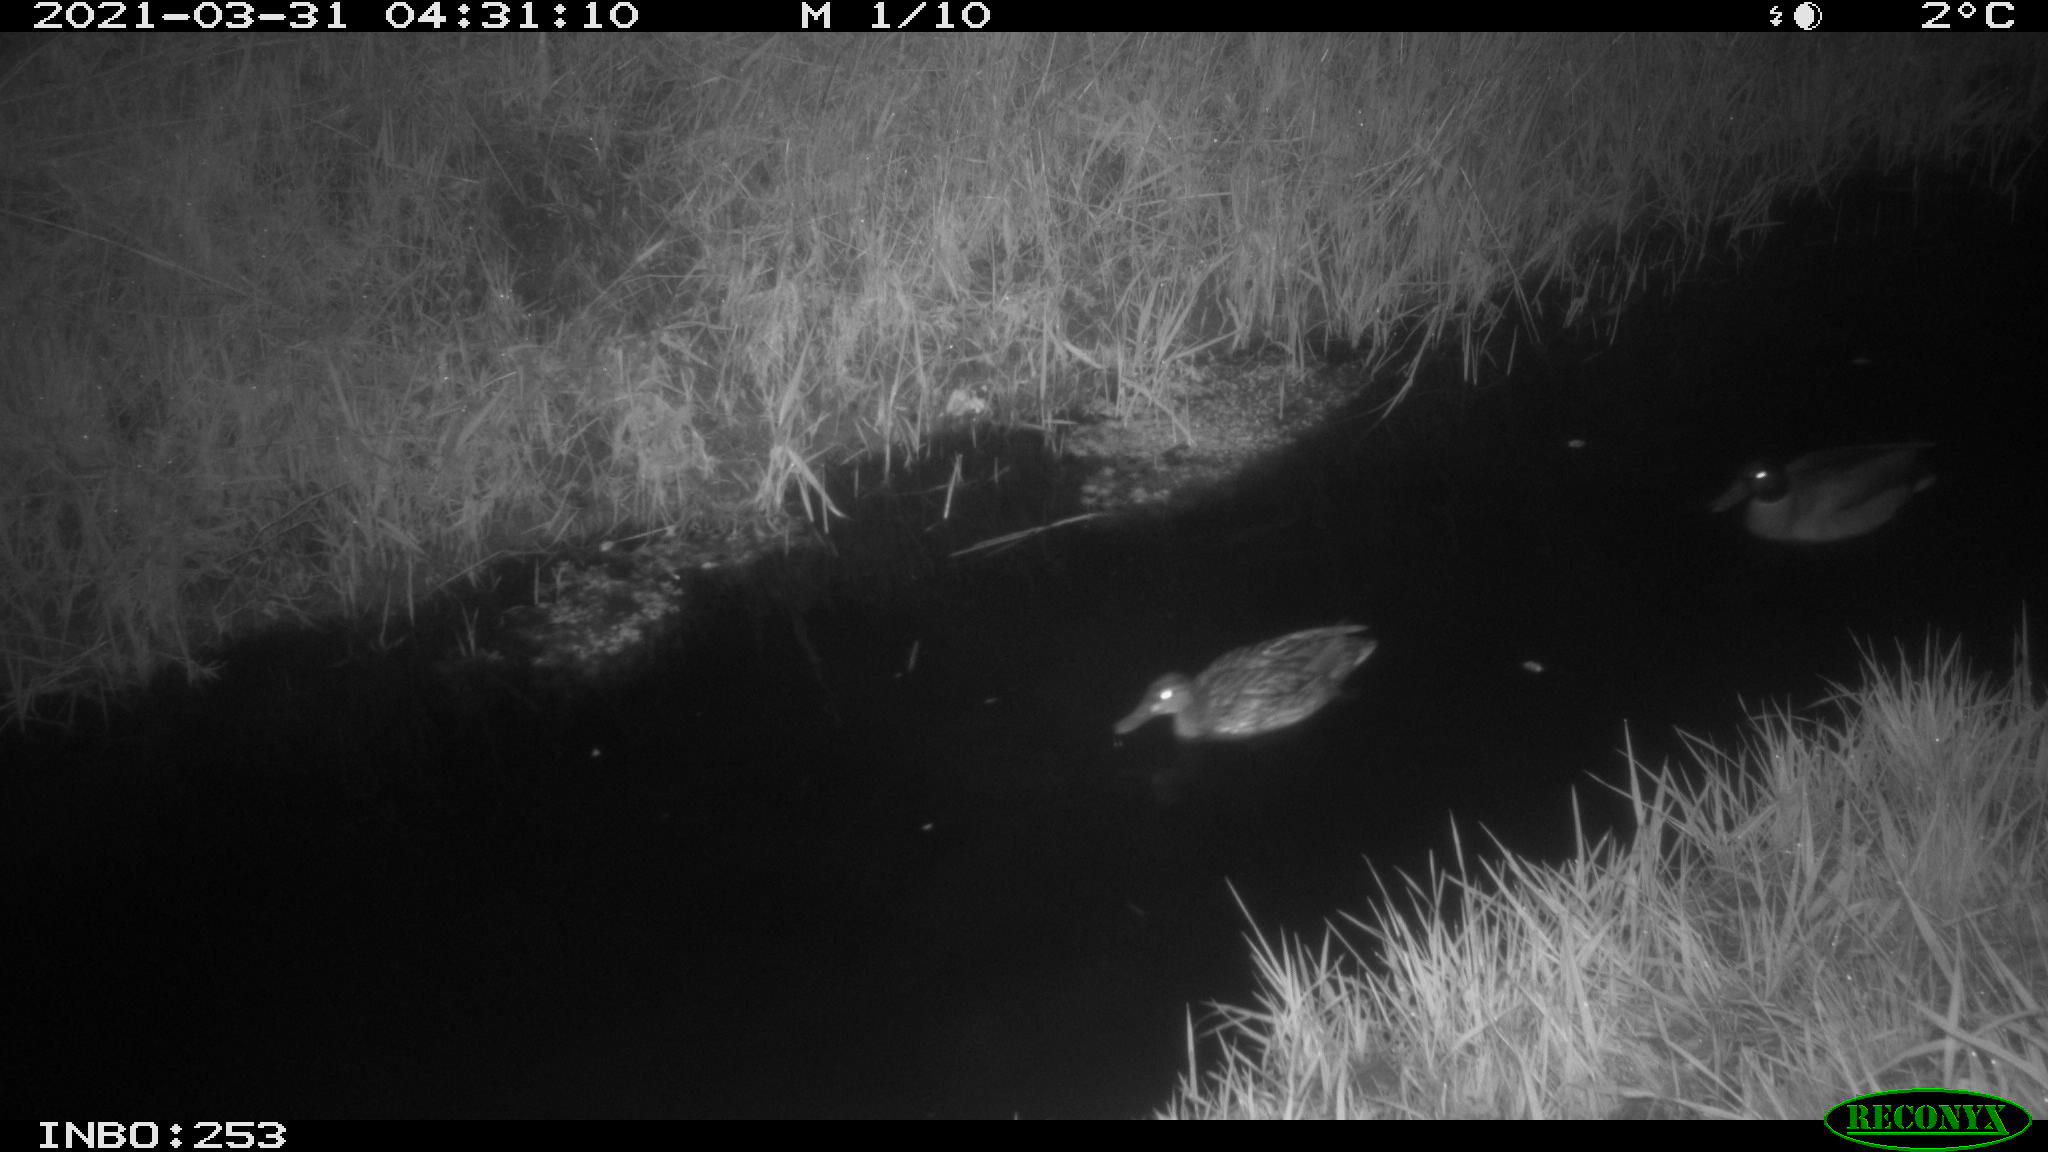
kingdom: Animalia
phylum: Chordata
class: Aves
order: Anseriformes
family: Anatidae
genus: Anas
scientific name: Anas platyrhynchos
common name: Mallard
